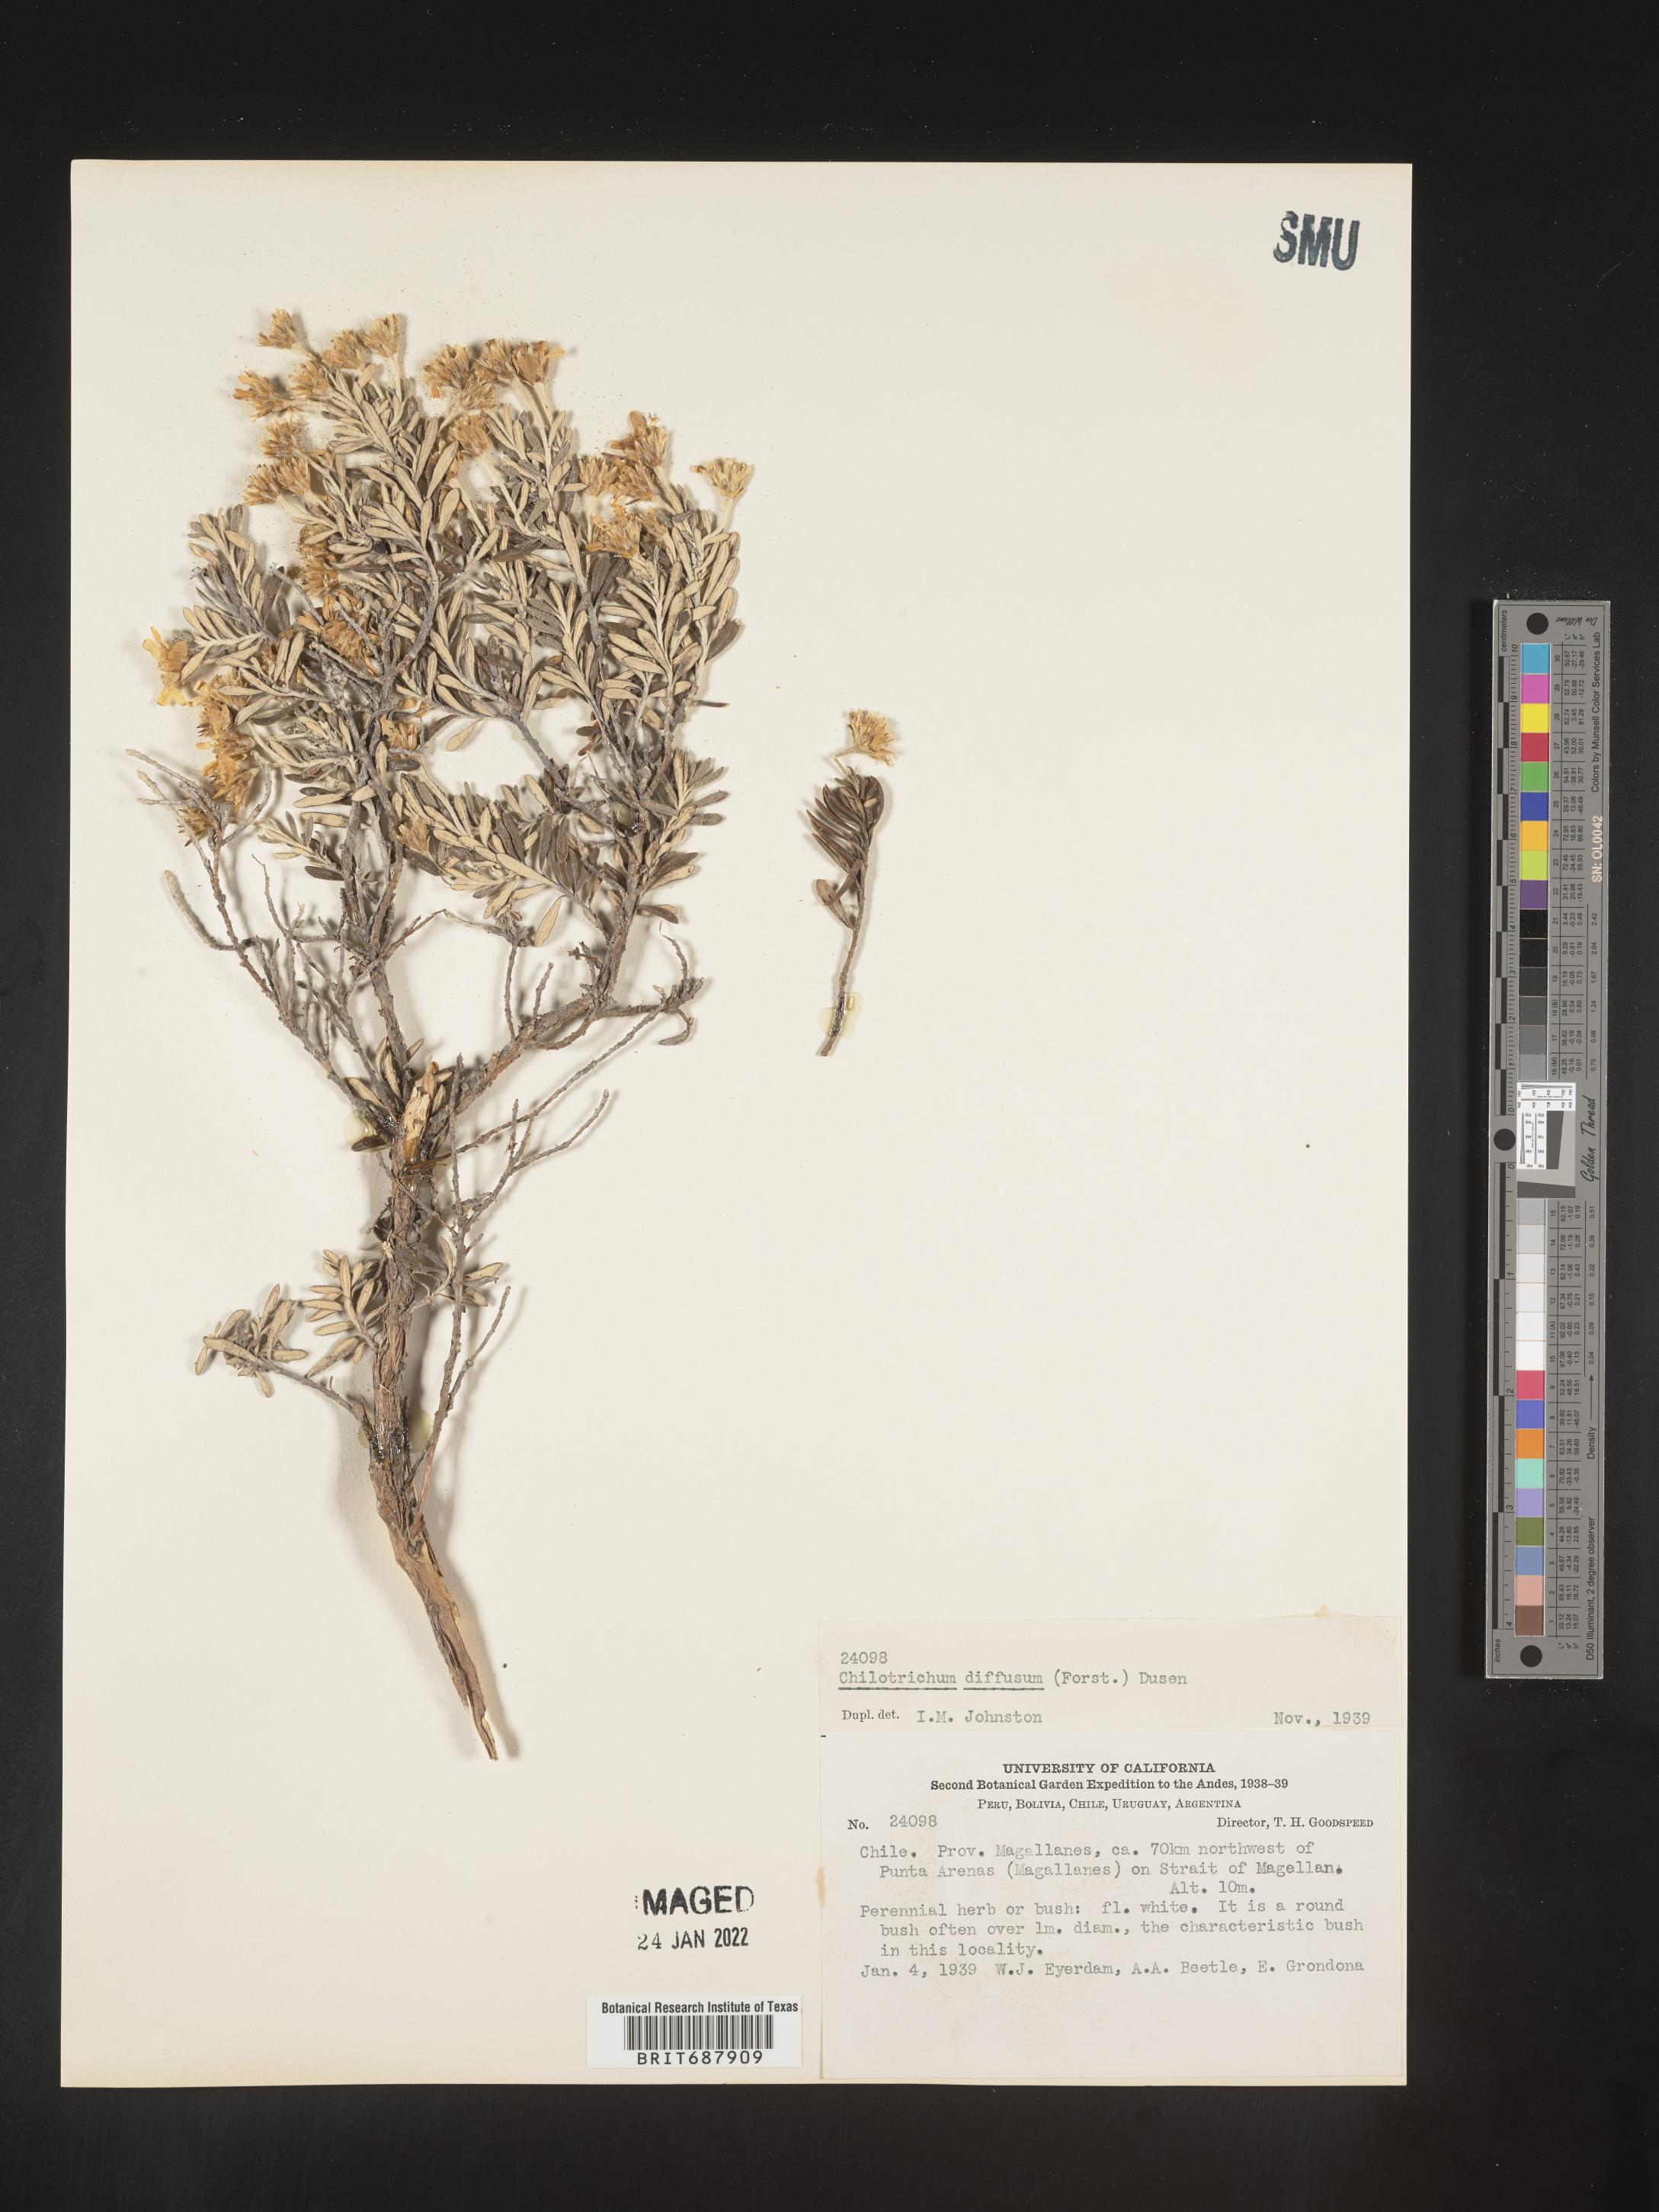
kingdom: Plantae
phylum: Tracheophyta
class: Magnoliopsida
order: Asterales
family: Asteraceae
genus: Chiliotrichum
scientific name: Chiliotrichum
